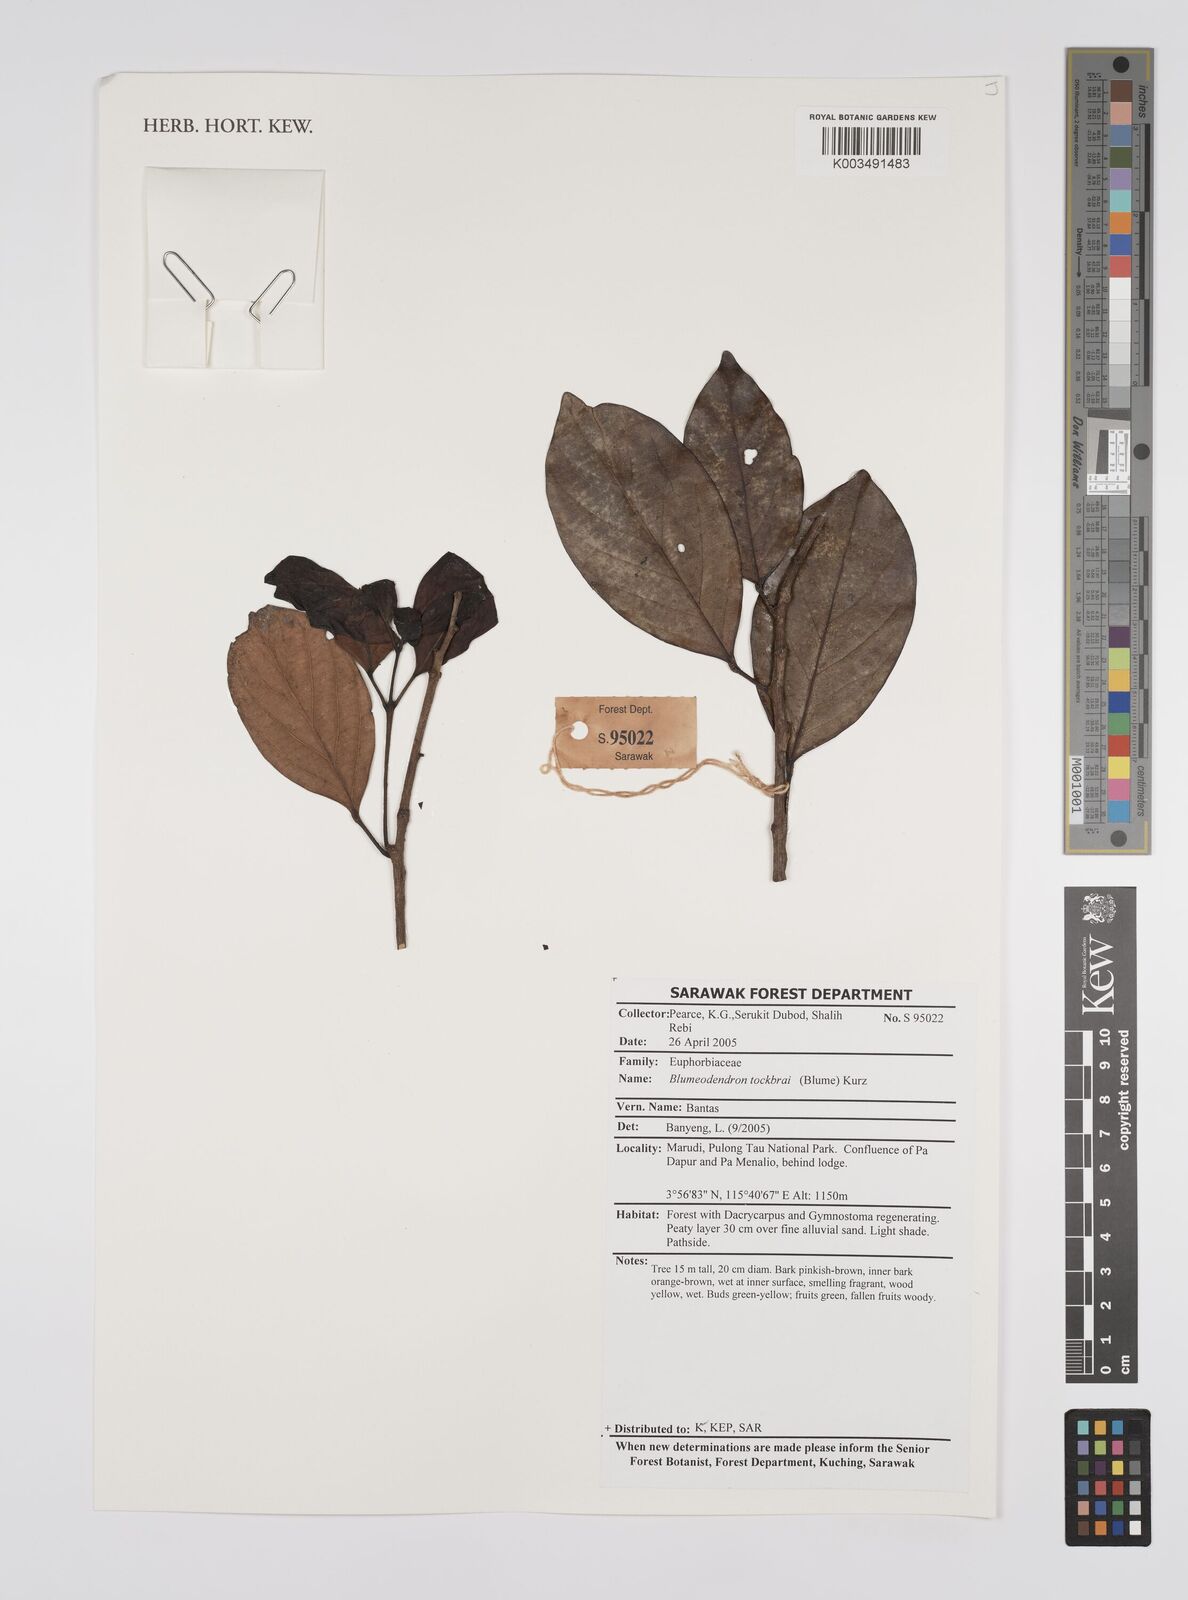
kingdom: Plantae
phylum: Tracheophyta
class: Magnoliopsida
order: Malpighiales
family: Euphorbiaceae
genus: Blumeodendron
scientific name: Blumeodendron tokbrai
